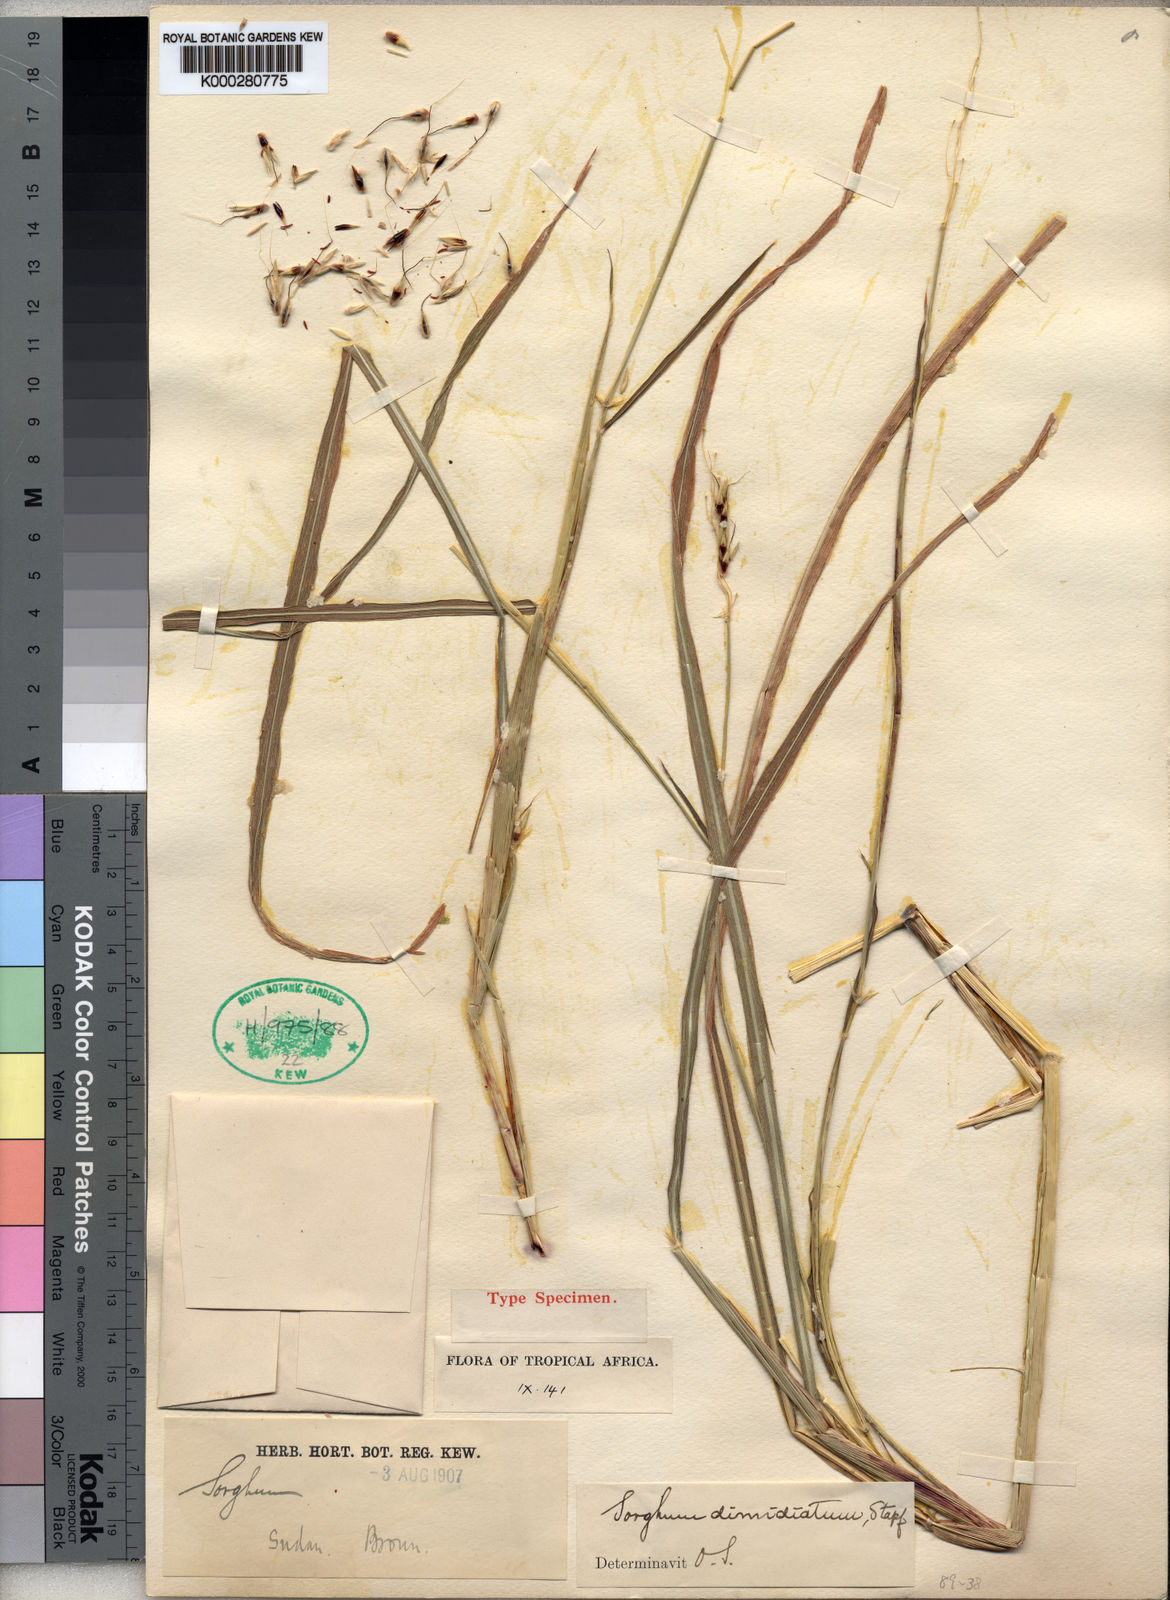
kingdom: Plantae
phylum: Tracheophyta
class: Liliopsida
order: Poales
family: Poaceae
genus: Sarga
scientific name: Sarga purpureosericea
